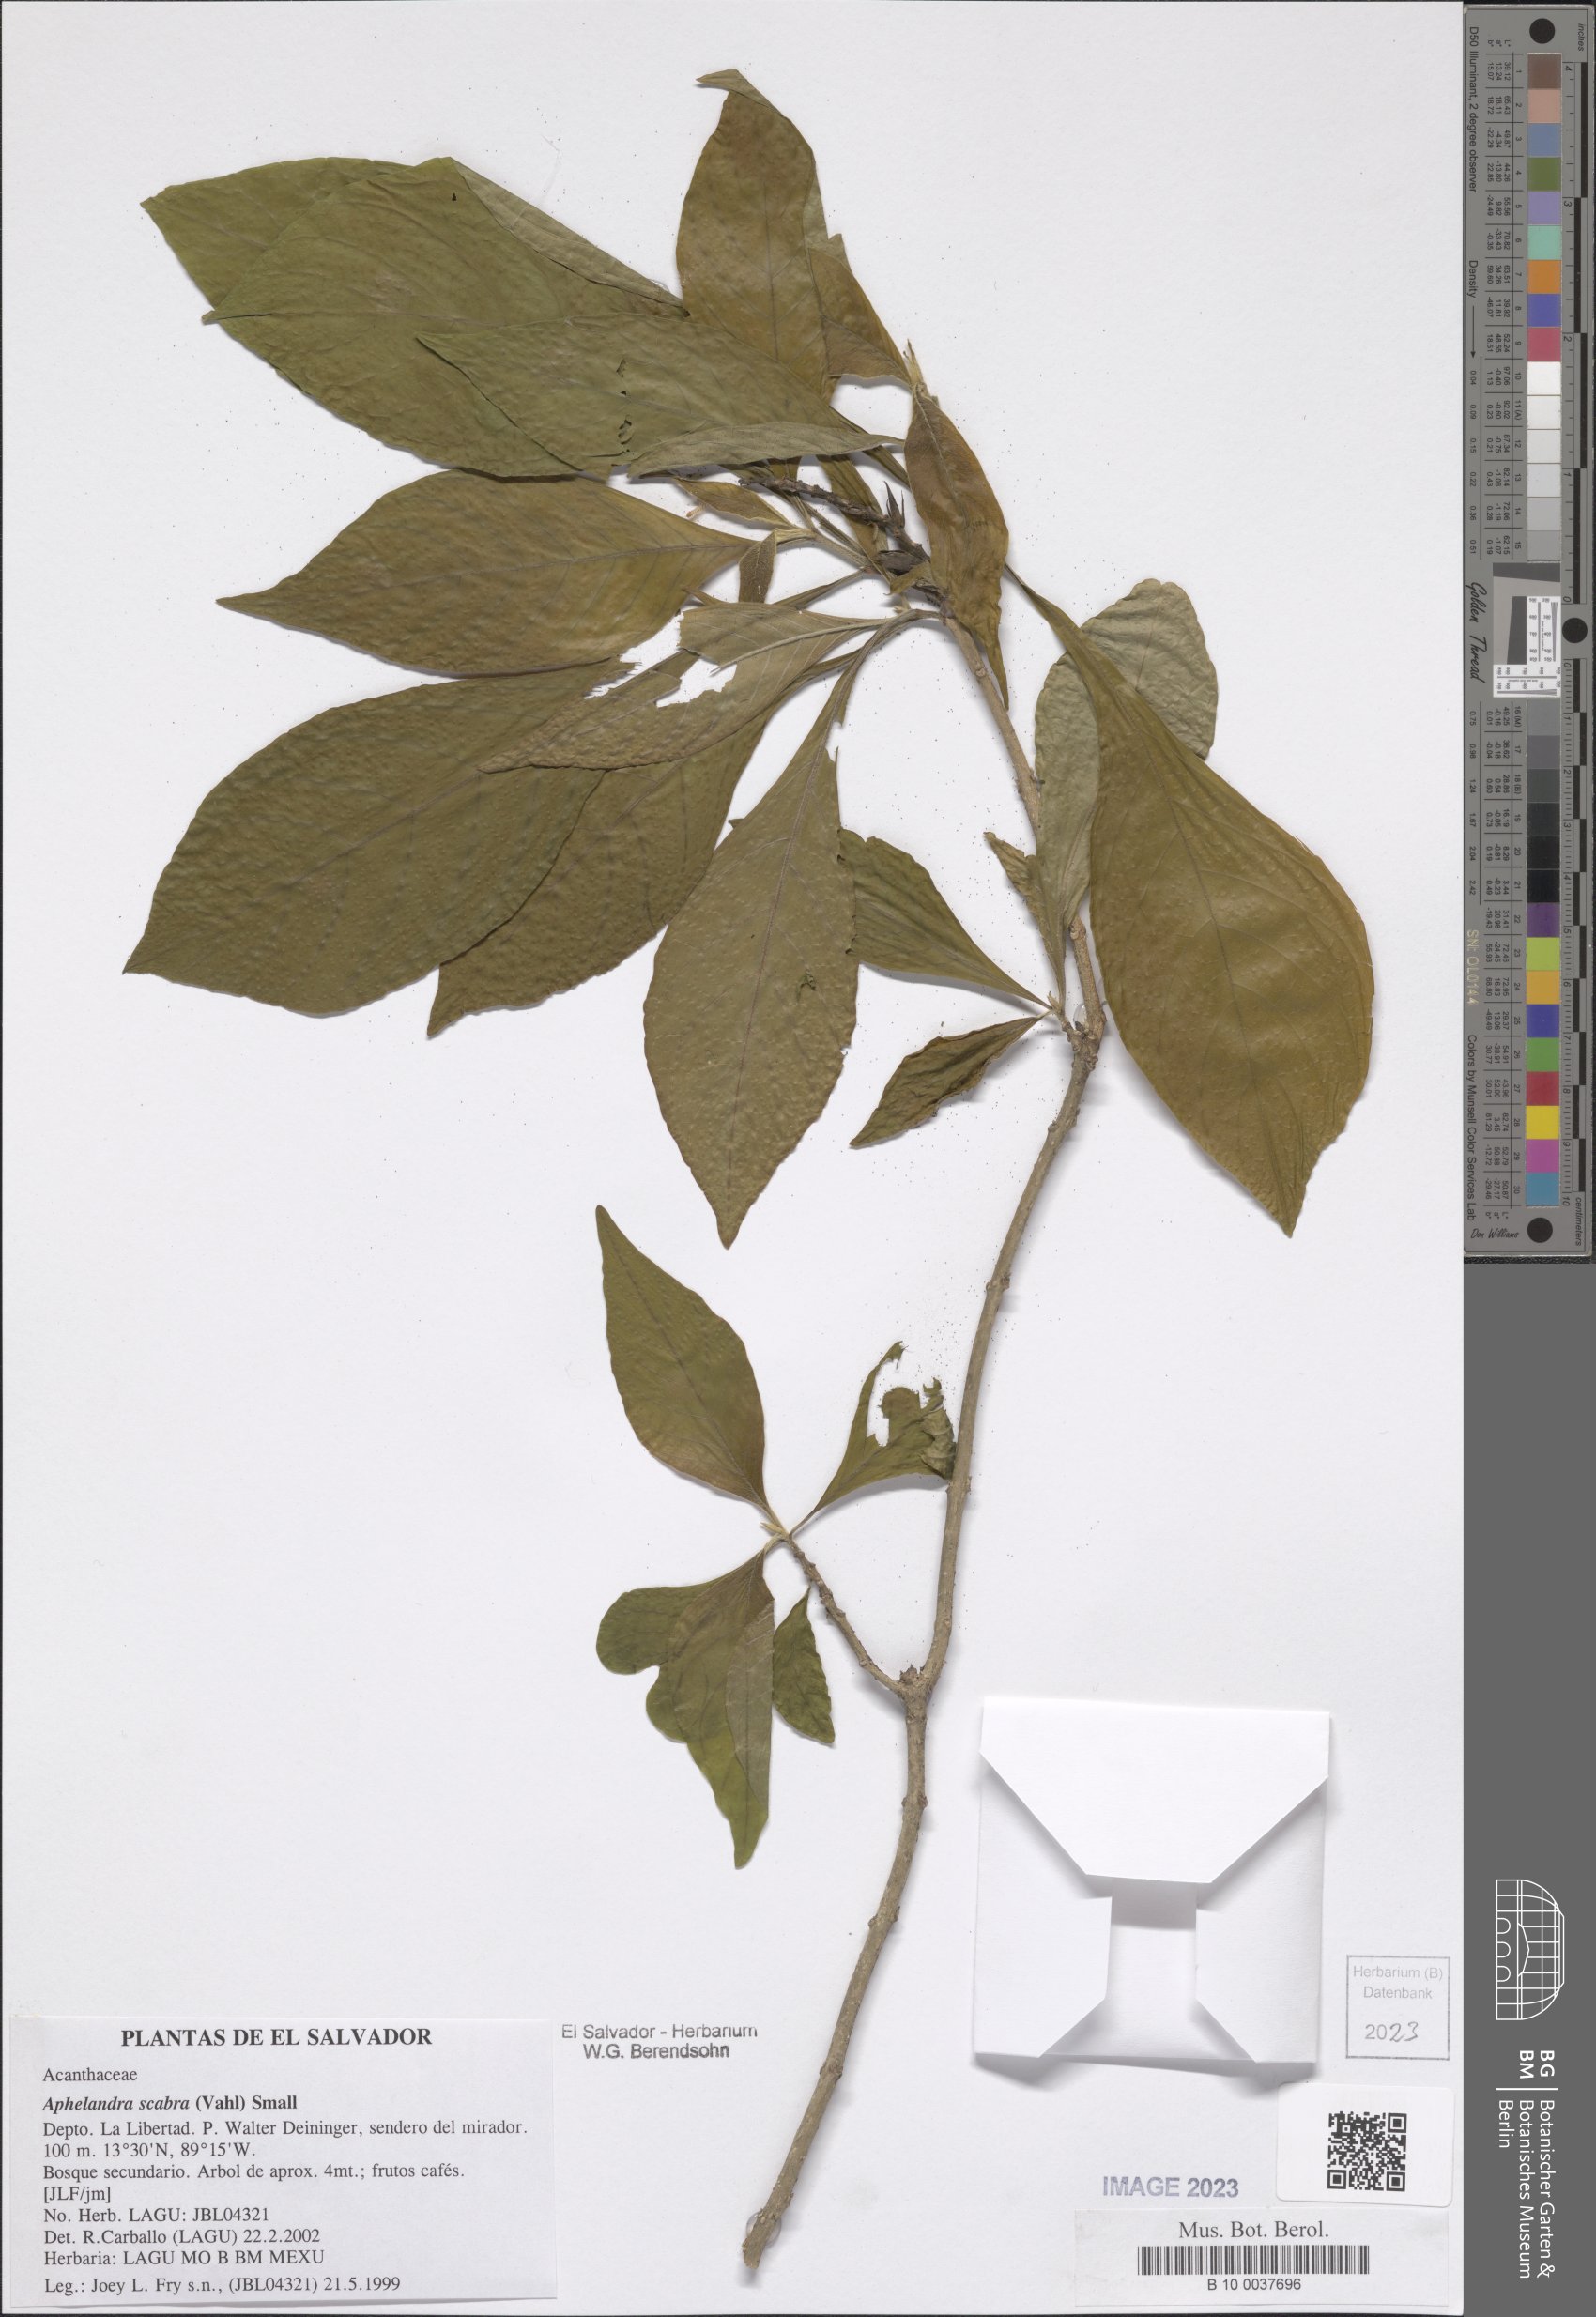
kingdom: Plantae
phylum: Tracheophyta
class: Magnoliopsida
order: Lamiales
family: Acanthaceae
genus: Aphelandra
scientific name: Aphelandra scabra
